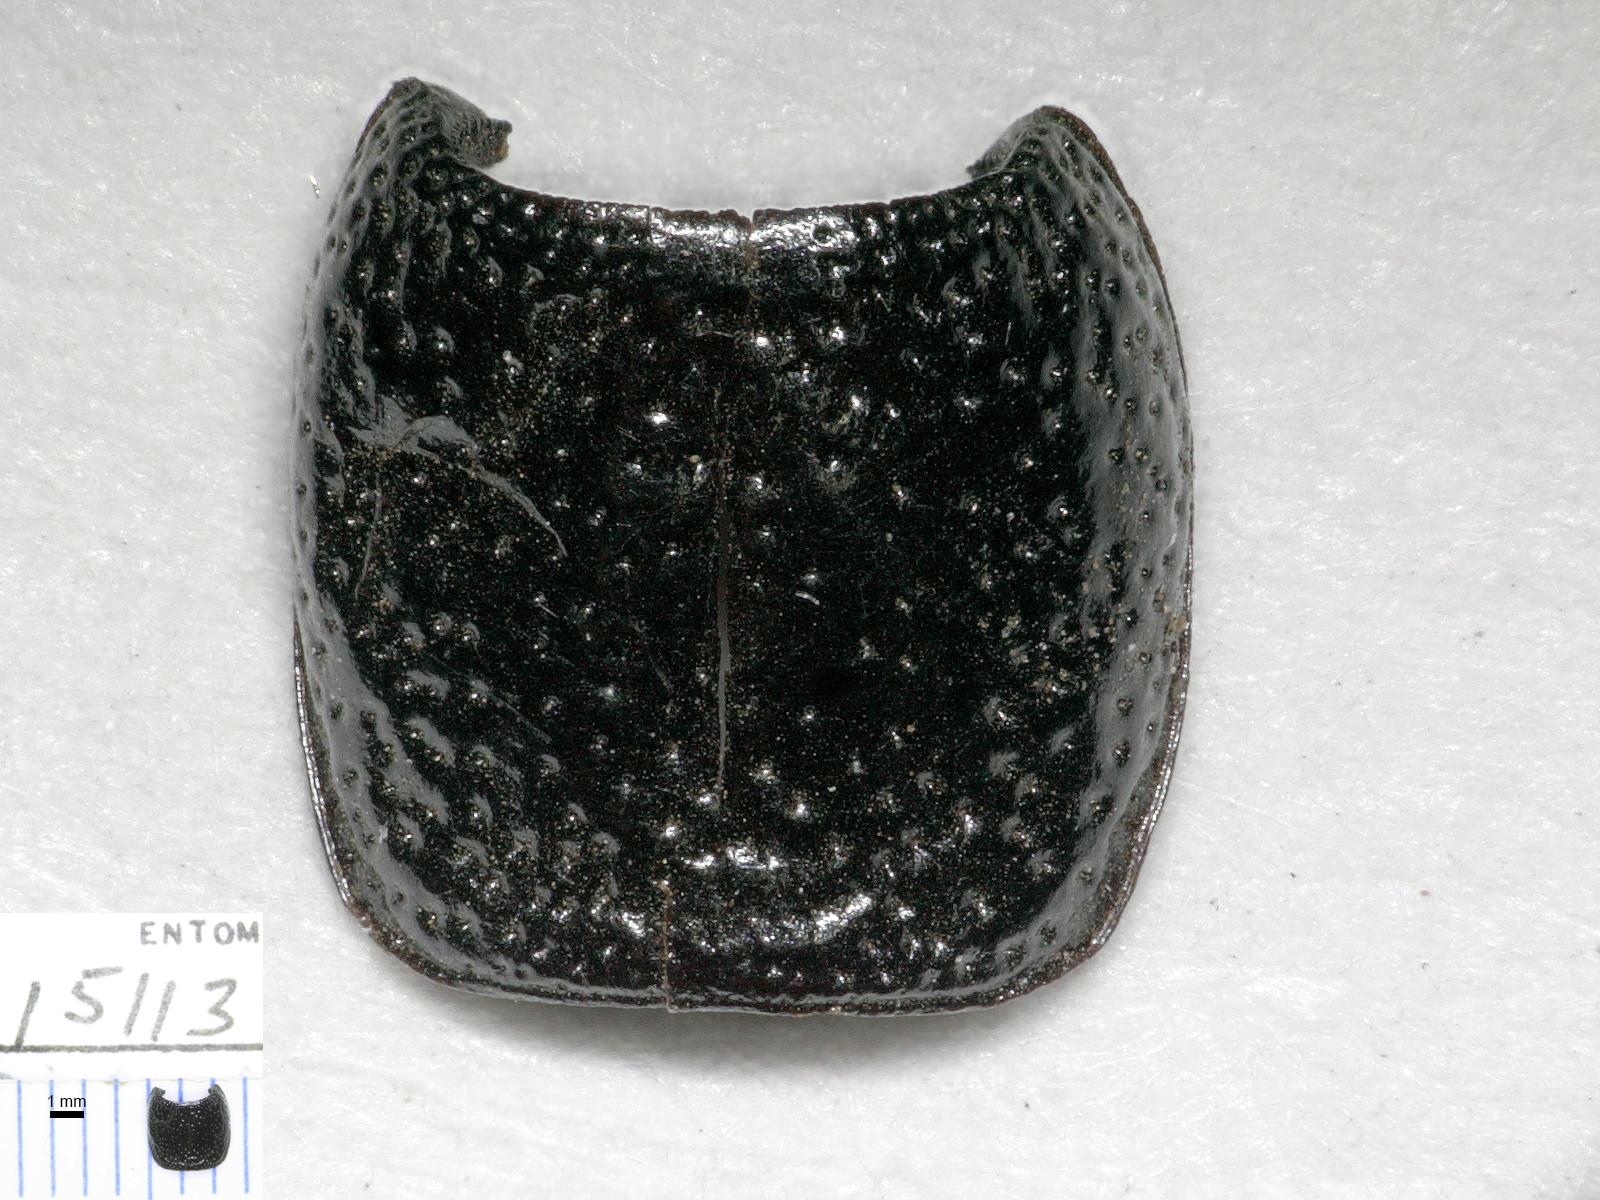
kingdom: Animalia
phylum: Arthropoda
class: Insecta
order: Coleoptera
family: Carabidae
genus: Dicheirus
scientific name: Dicheirus
